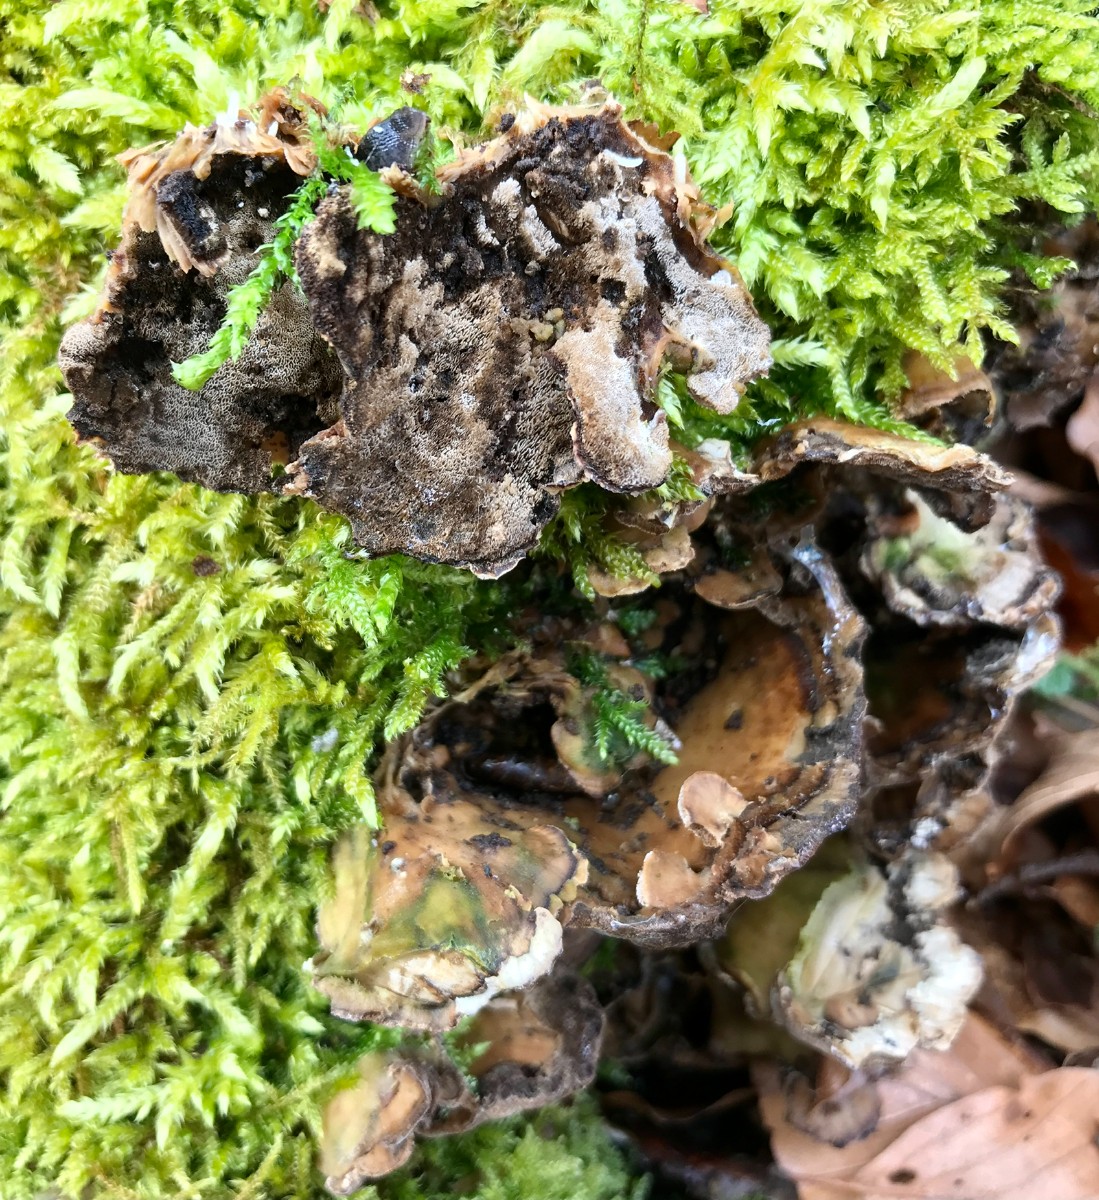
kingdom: Fungi
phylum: Basidiomycota
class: Agaricomycetes
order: Polyporales
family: Phanerochaetaceae
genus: Bjerkandera
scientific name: Bjerkandera adusta
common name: sveden sodporesvamp
